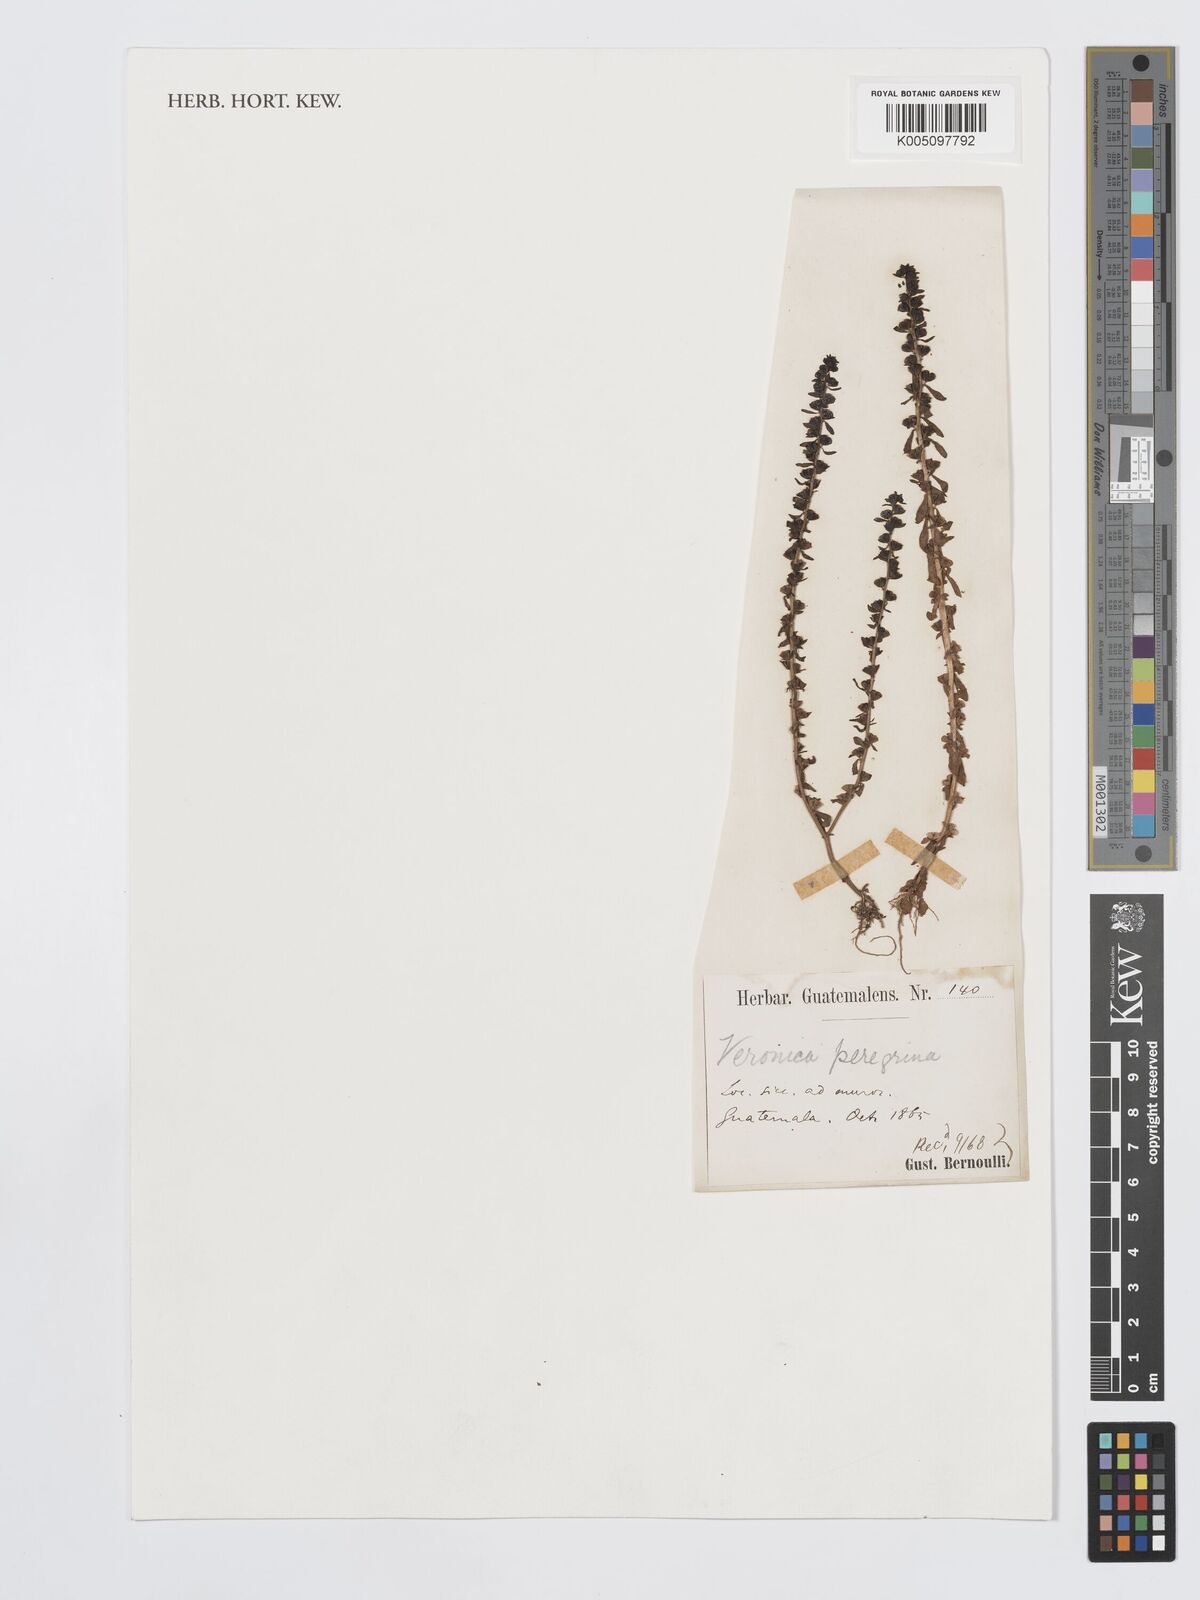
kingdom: Plantae
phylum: Tracheophyta
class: Magnoliopsida
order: Lamiales
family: Plantaginaceae
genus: Veronica
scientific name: Veronica peregrina
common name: Neckweed
